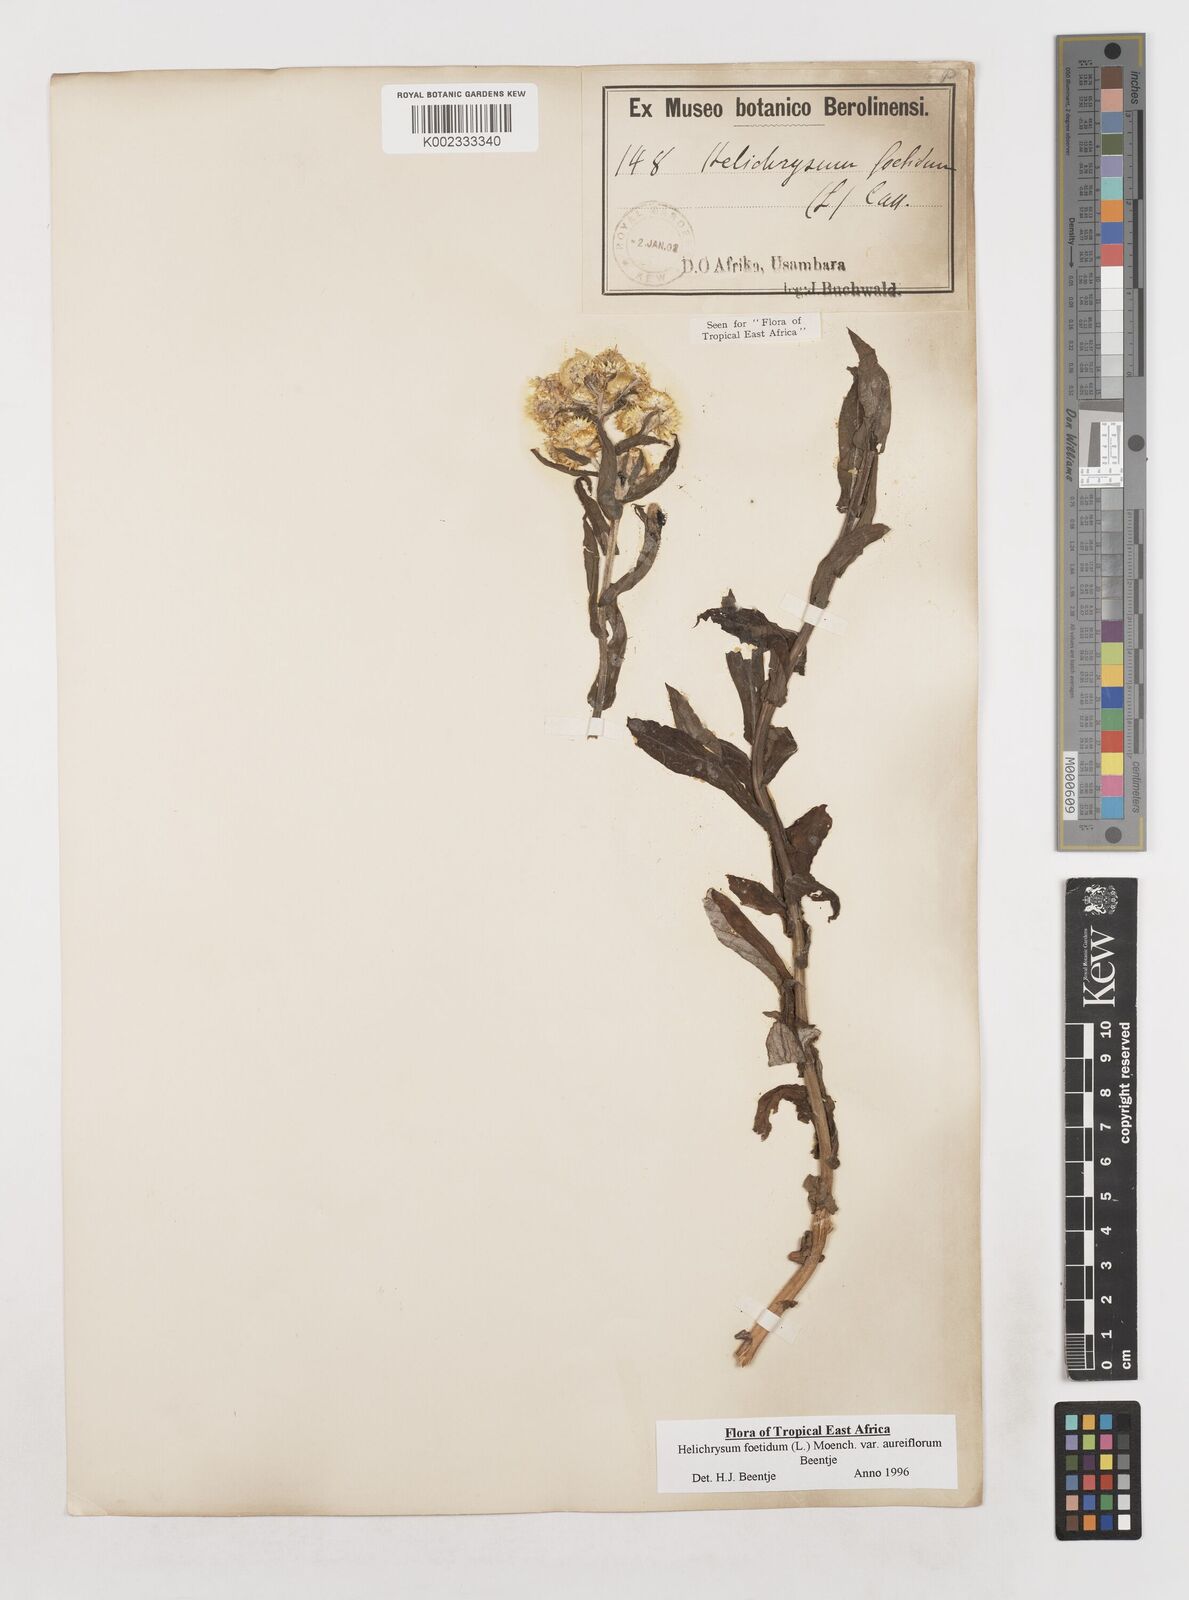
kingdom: Plantae
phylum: Tracheophyta
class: Magnoliopsida
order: Asterales
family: Asteraceae
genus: Helichrysum
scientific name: Helichrysum foetidum
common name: Stinking everlasting
